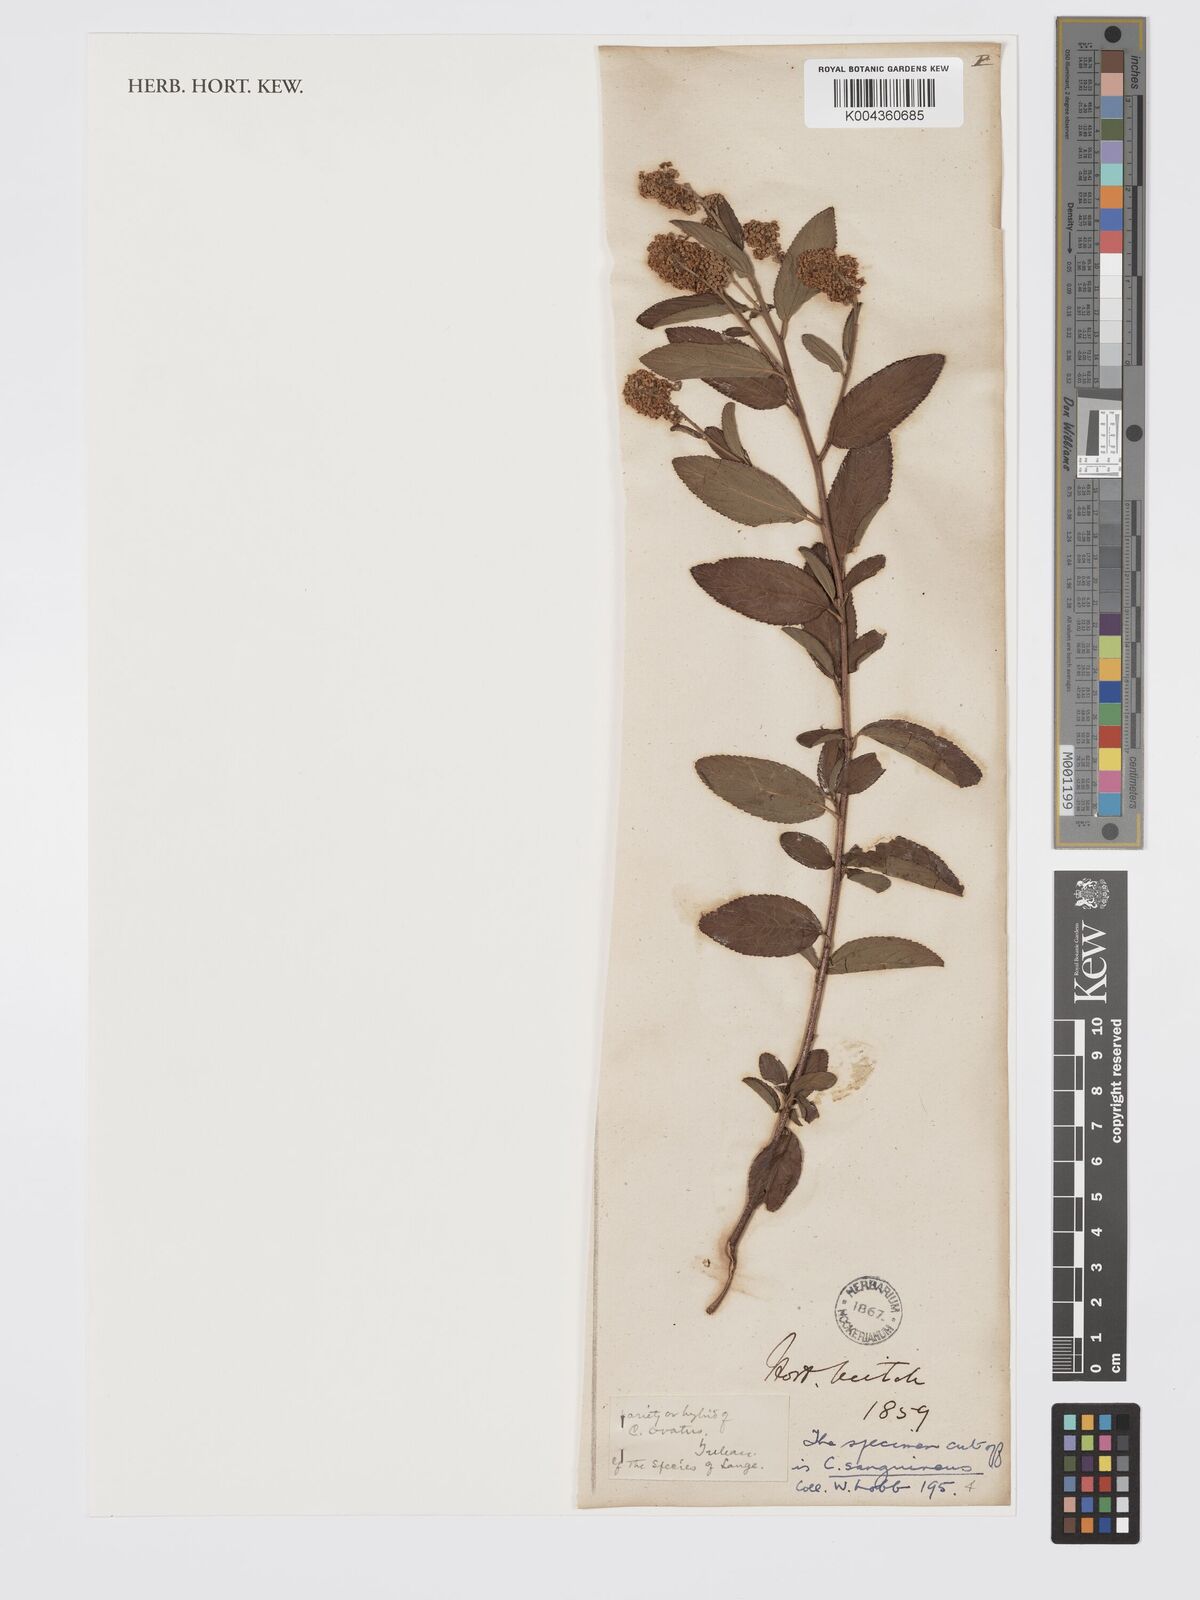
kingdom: Plantae
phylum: Tracheophyta
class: Magnoliopsida
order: Rosales
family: Rhamnaceae
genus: Ceanothus
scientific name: Ceanothus herbaceus
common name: Inland ceanothus
